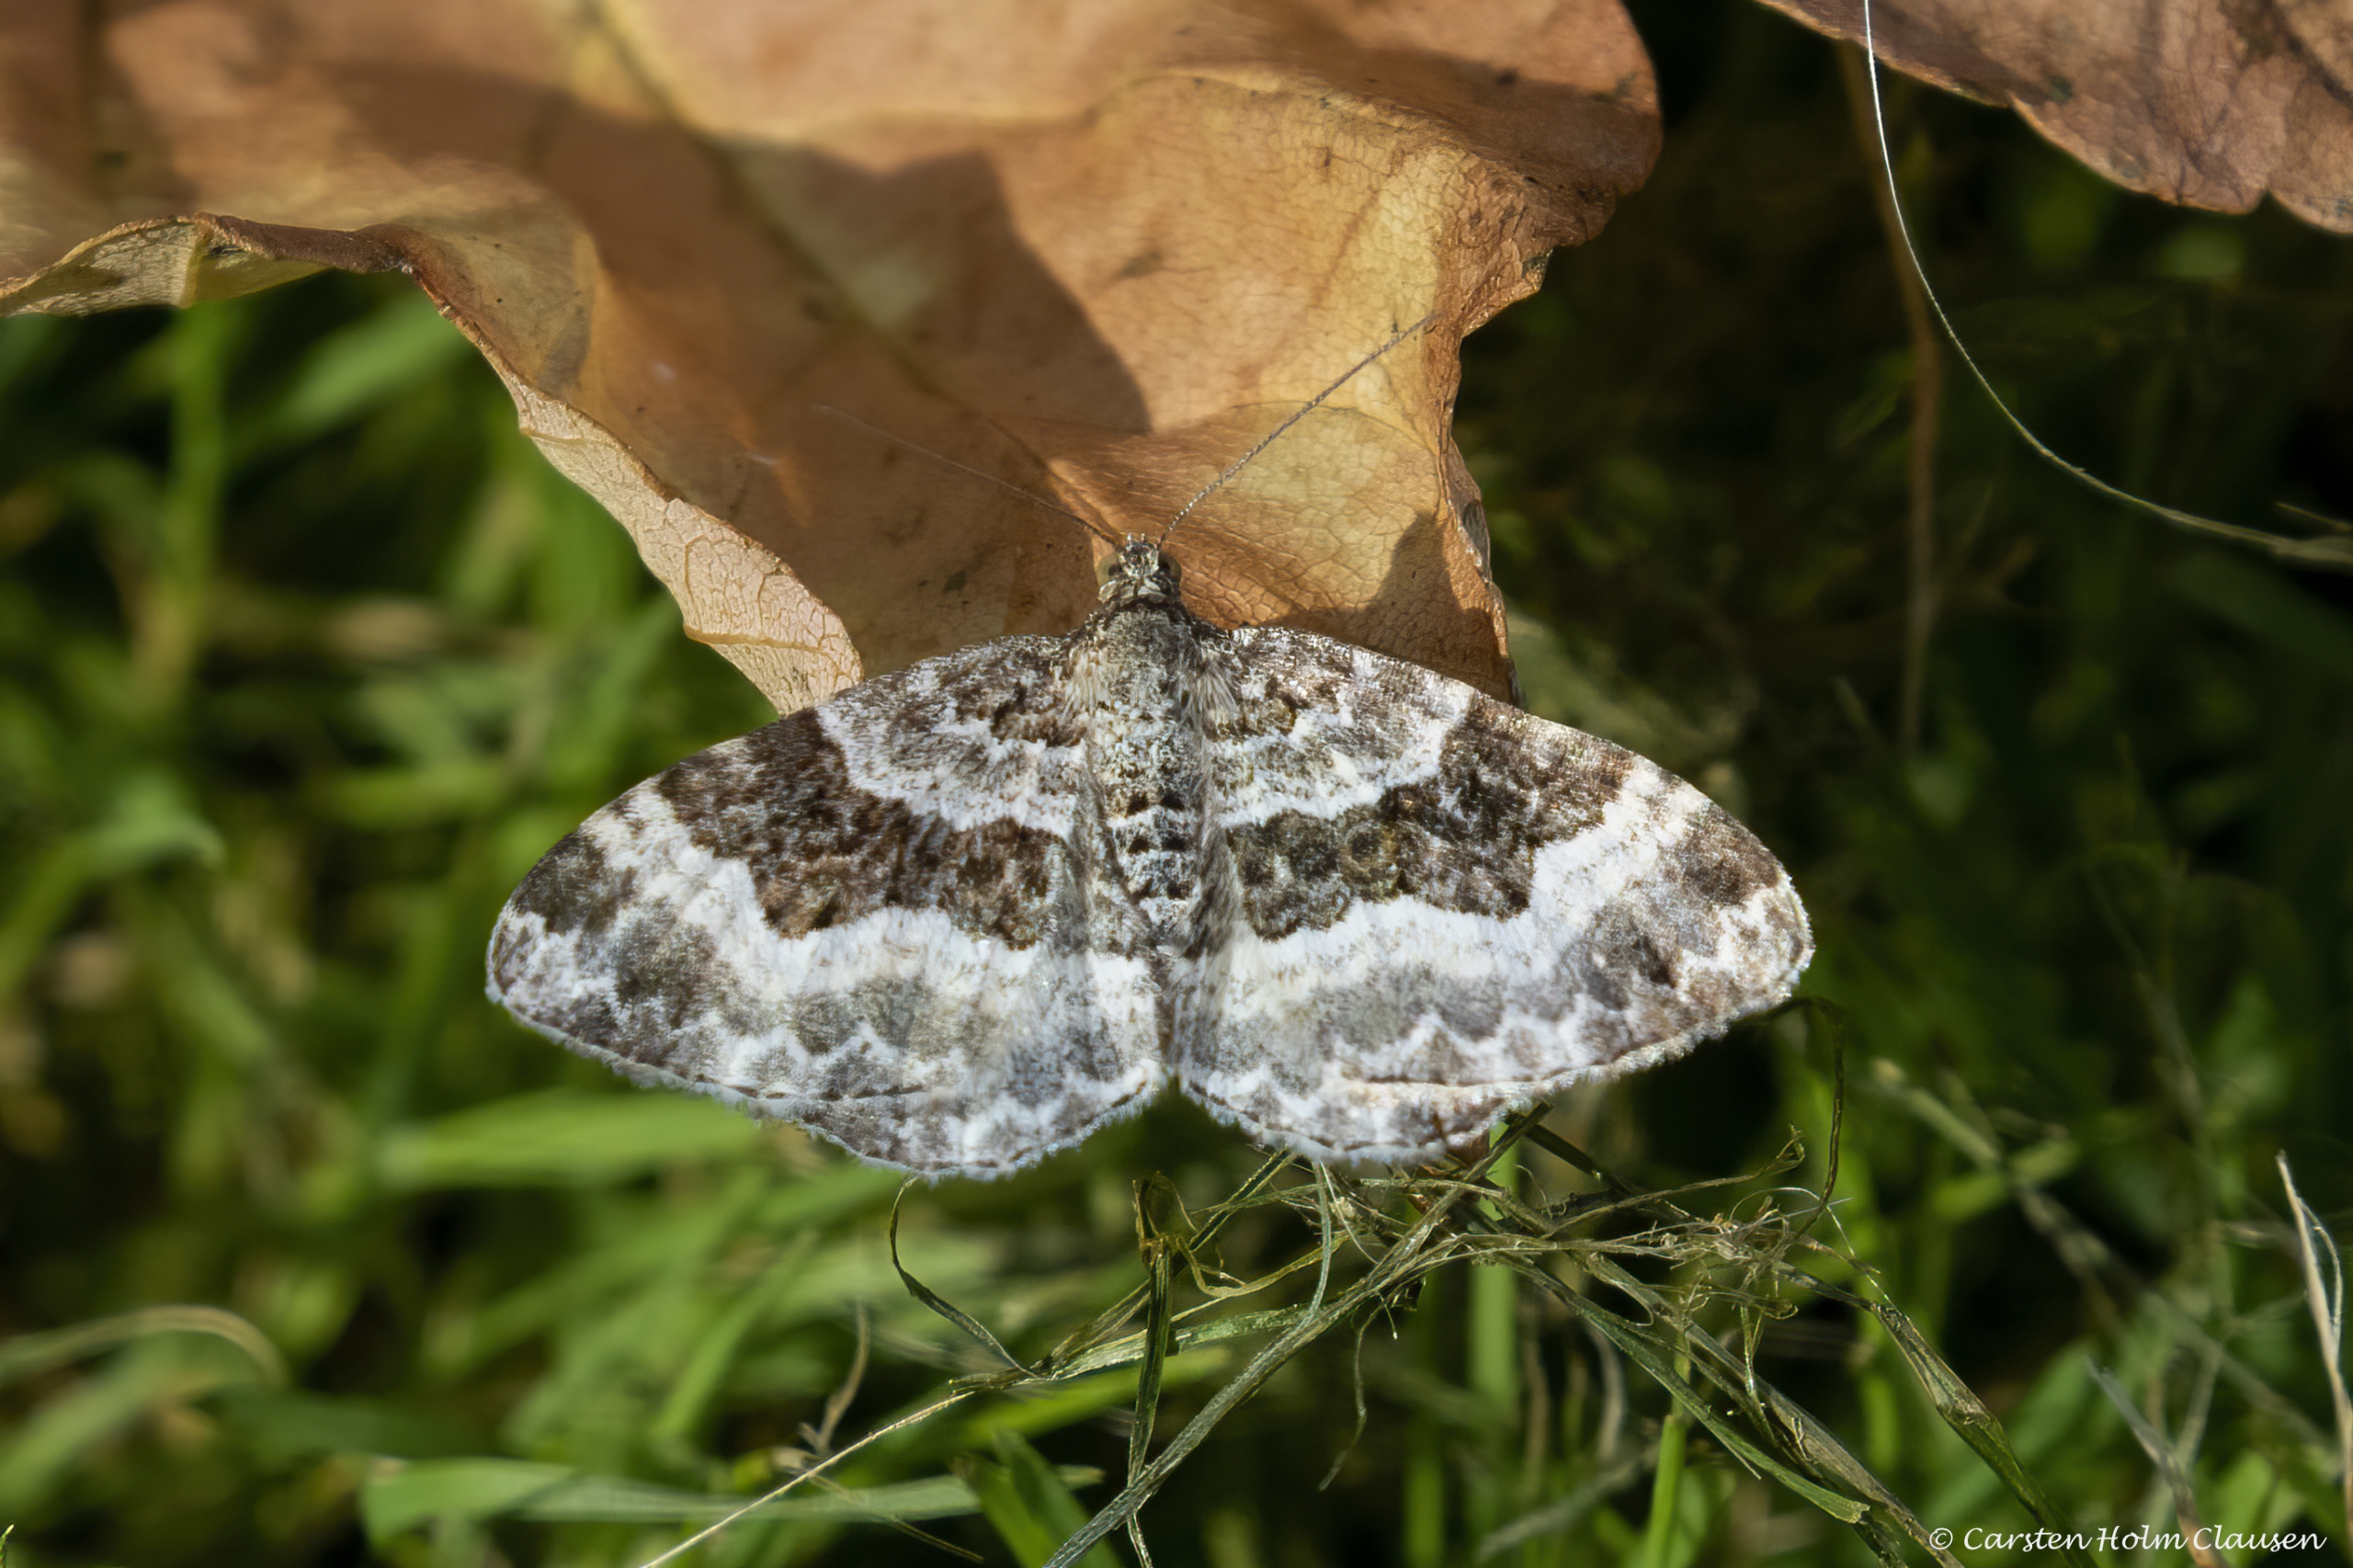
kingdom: Animalia
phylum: Arthropoda
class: Insecta
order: Lepidoptera
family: Geometridae
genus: Epirrhoe
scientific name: Epirrhoe alternata
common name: Almindelig bladmåler
